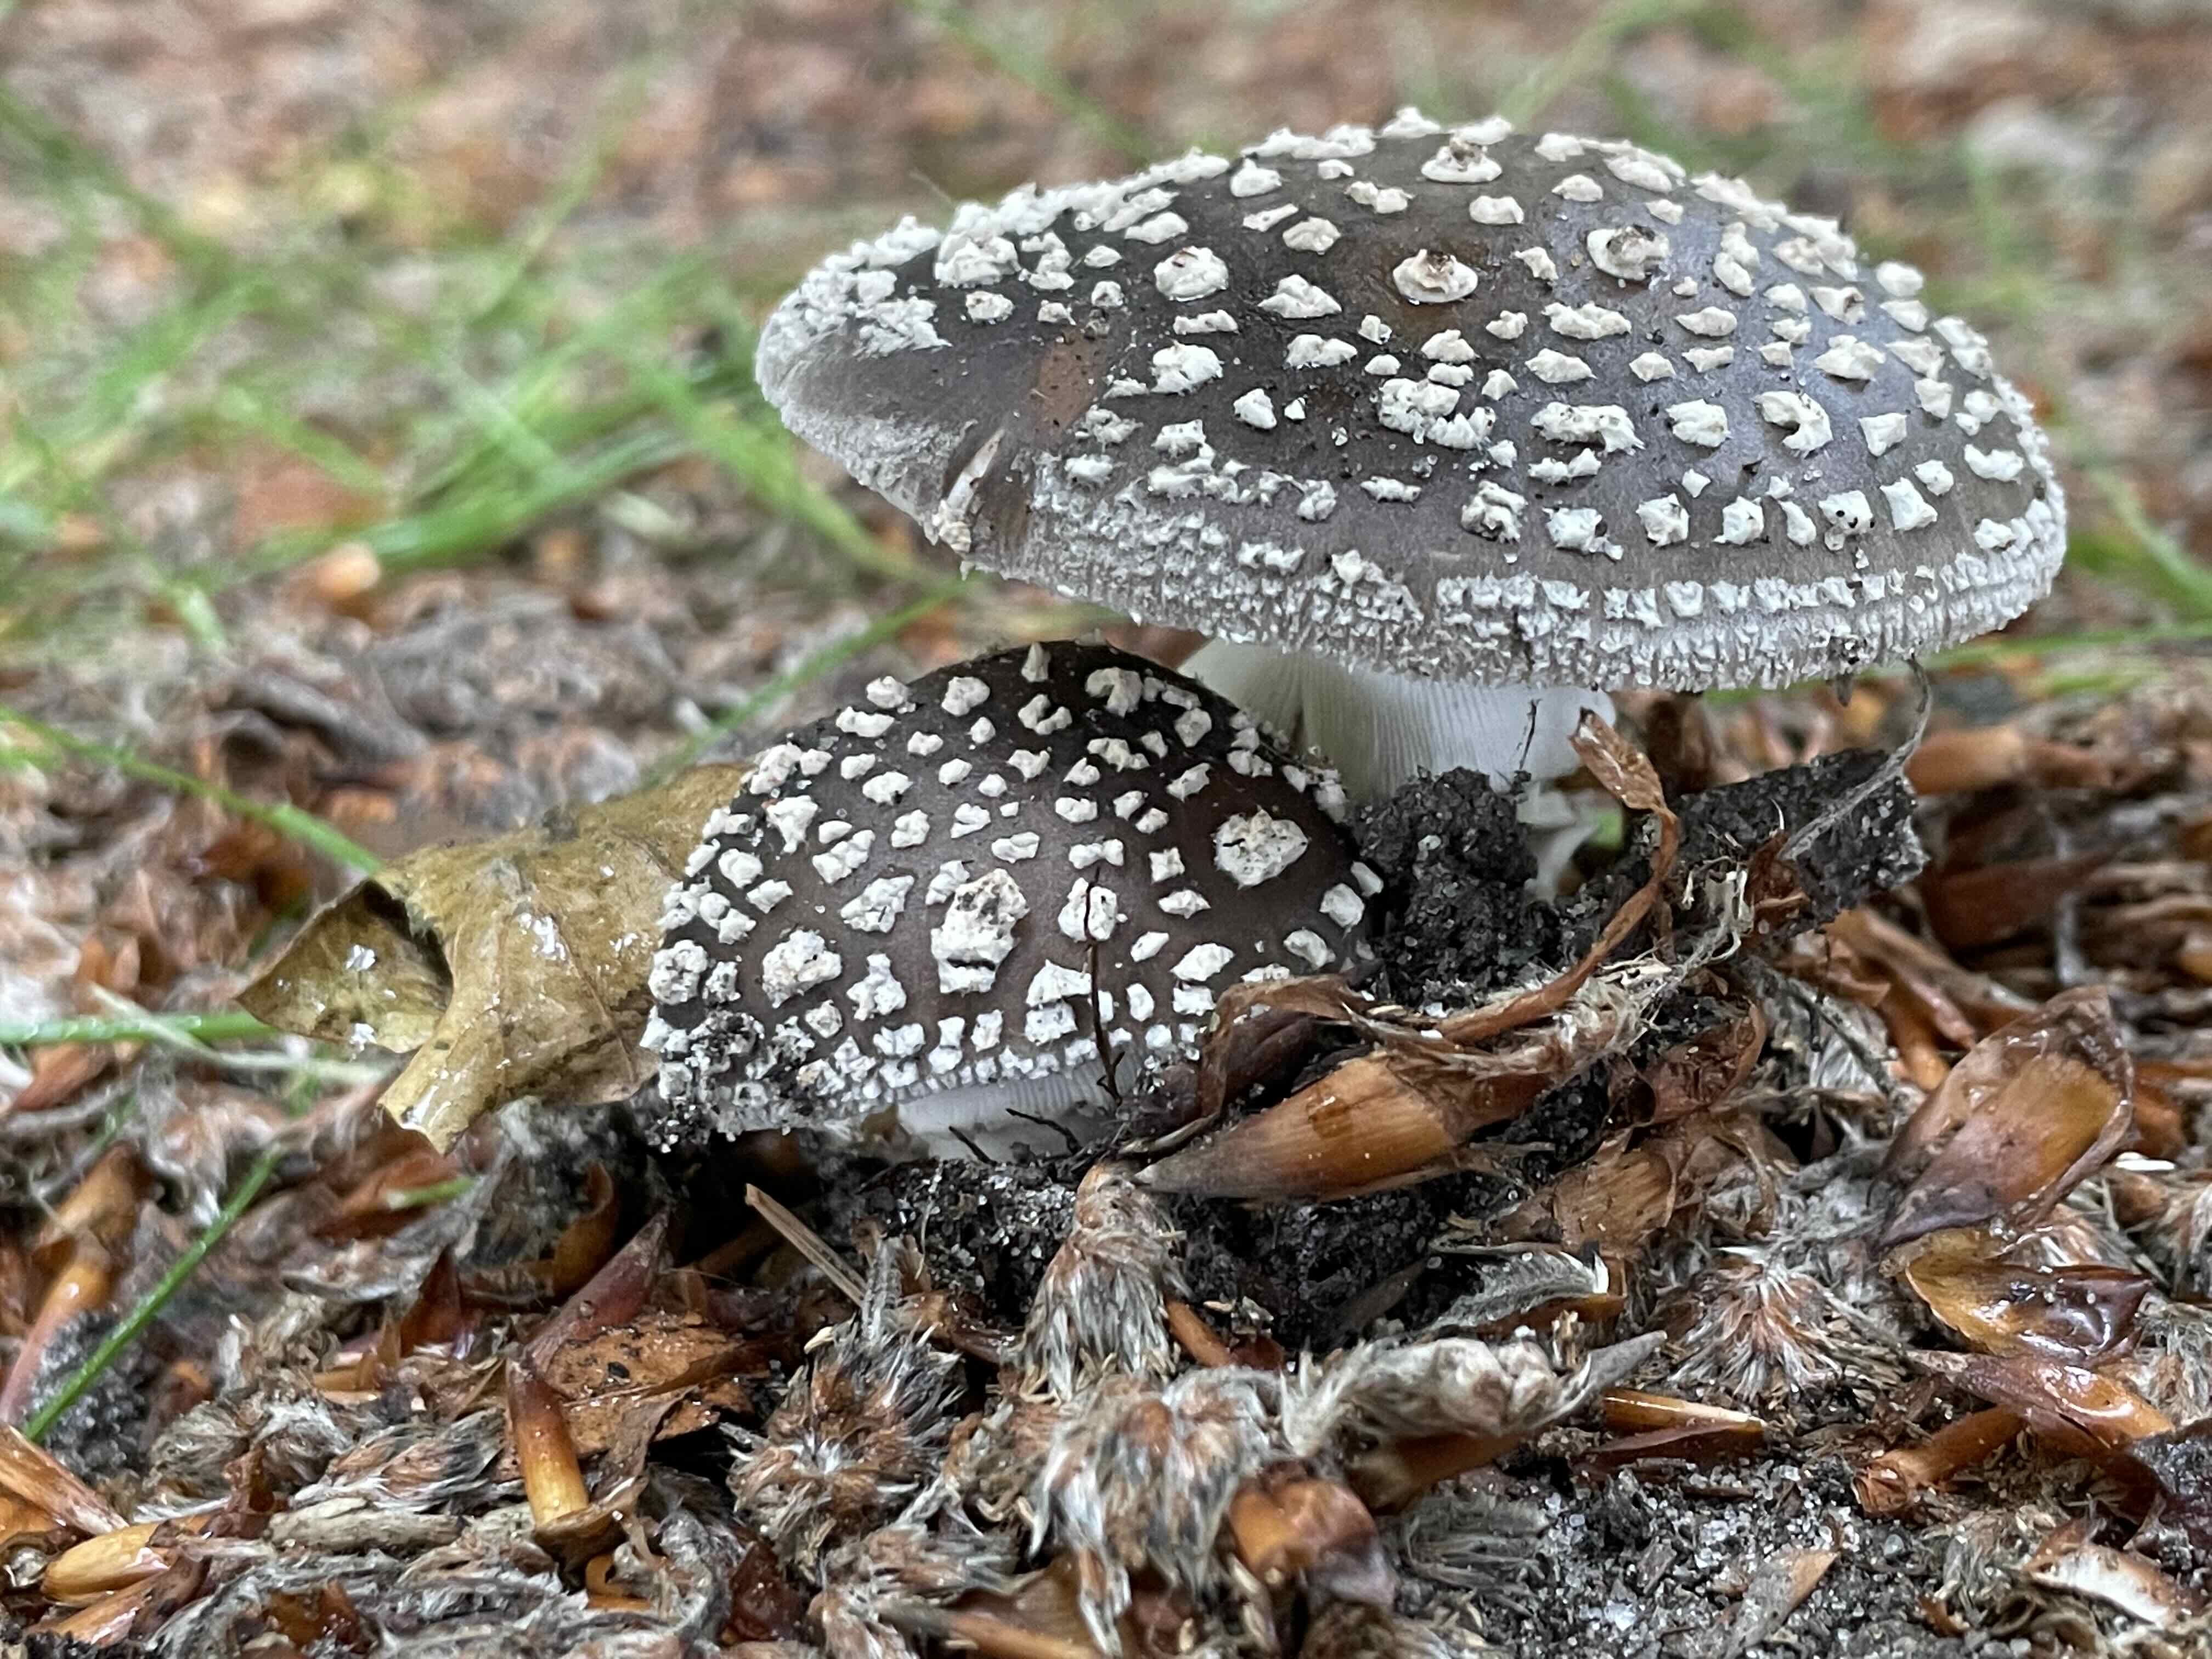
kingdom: Fungi
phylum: Basidiomycota
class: Agaricomycetes
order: Agaricales
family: Amanitaceae
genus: Amanita
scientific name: Amanita
